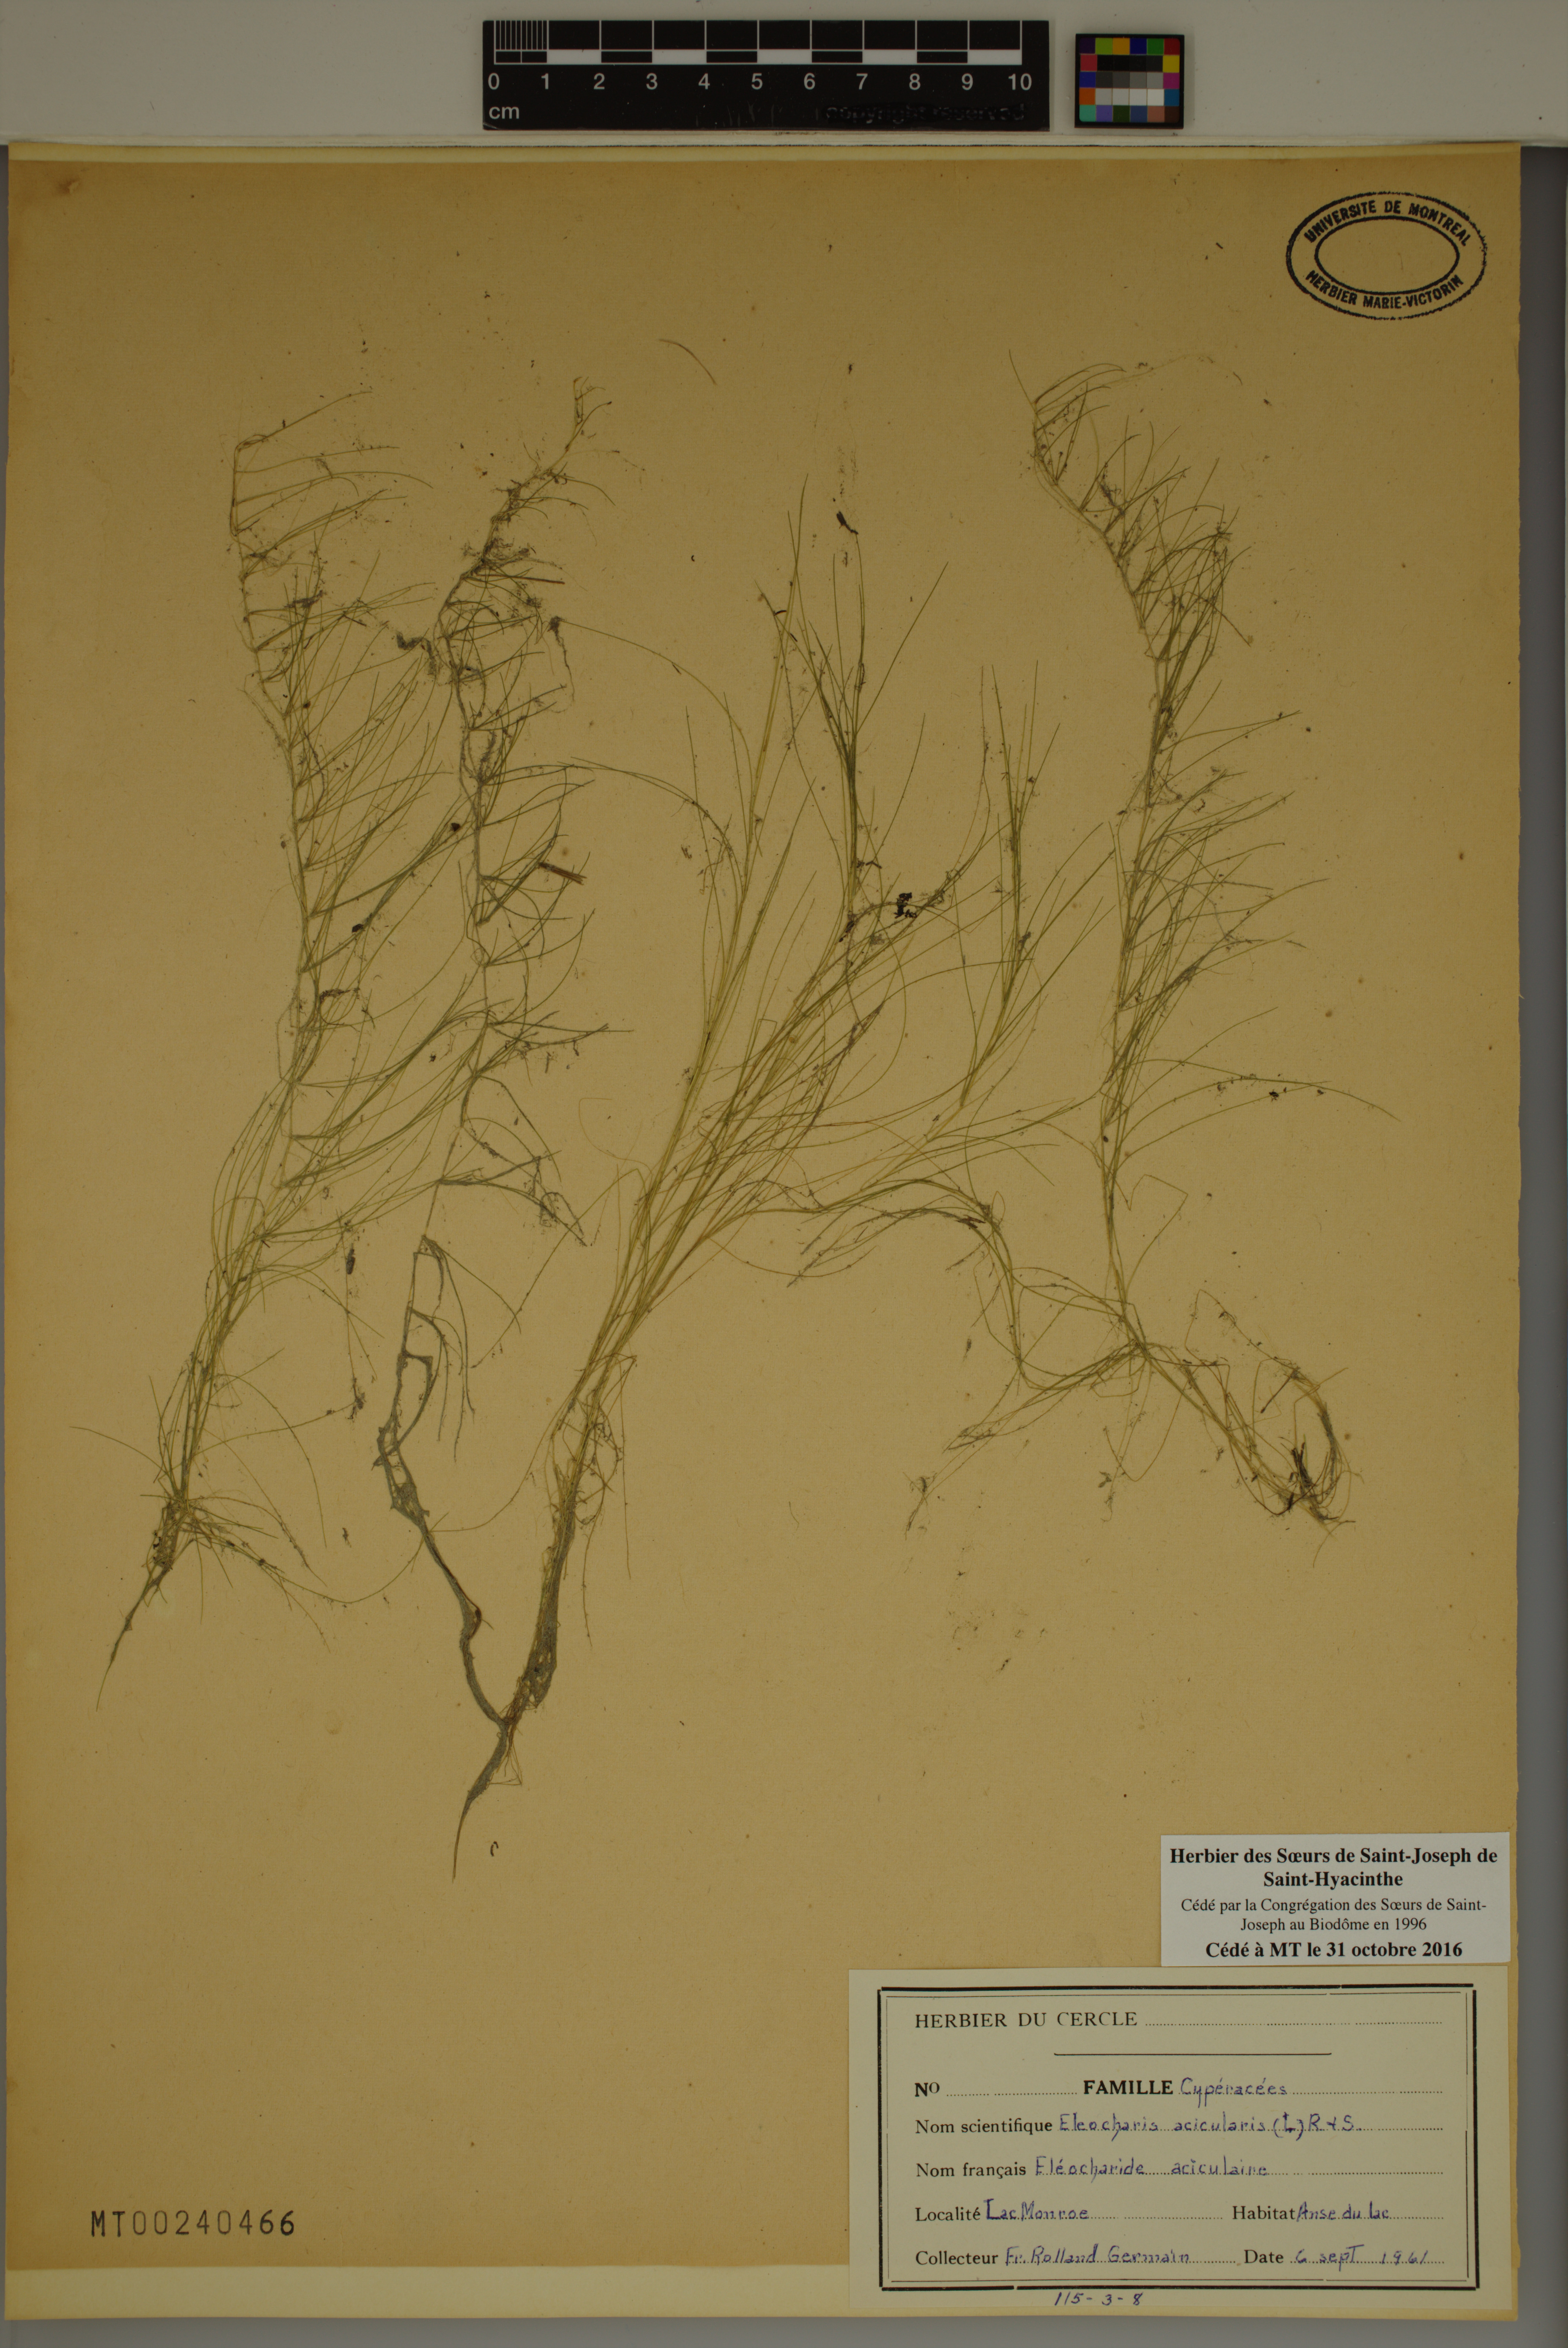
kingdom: Plantae
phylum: Tracheophyta
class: Liliopsida
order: Poales
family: Cyperaceae
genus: Eleocharis
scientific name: Eleocharis acicularis
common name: Needle spike-rush
